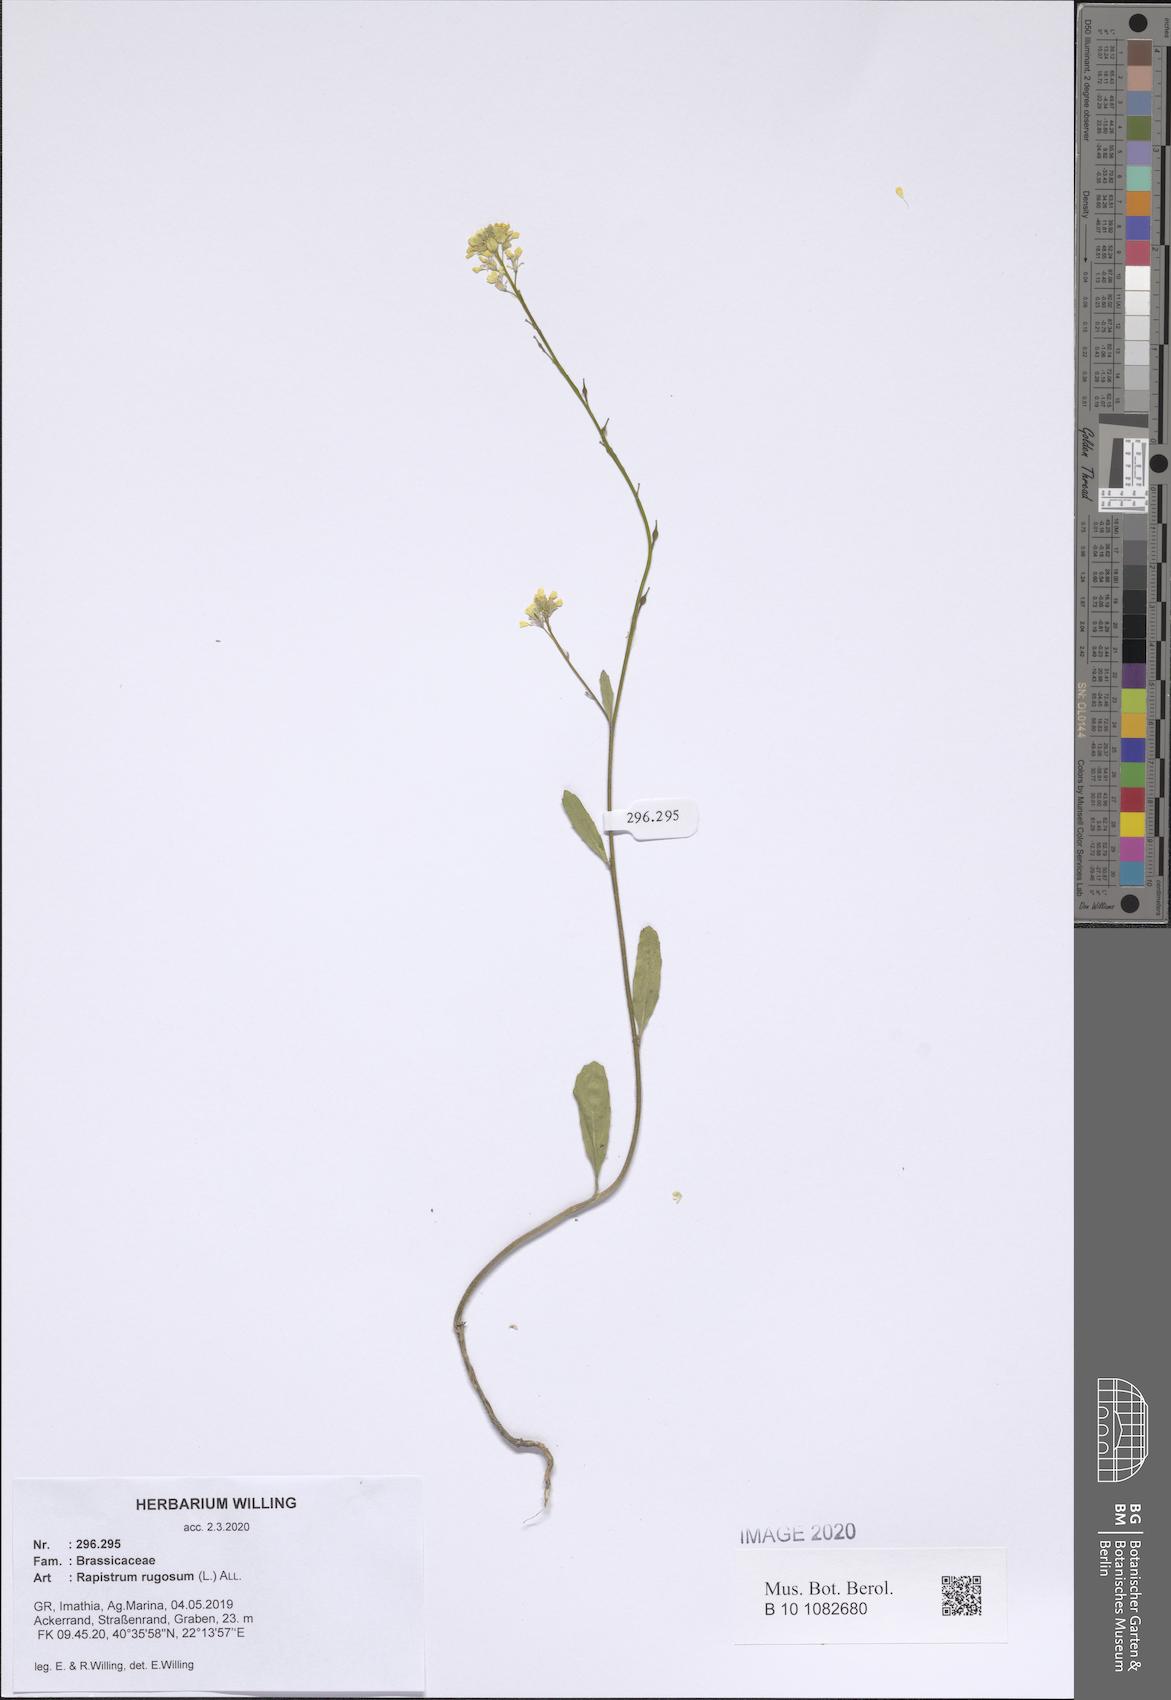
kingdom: Plantae
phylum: Tracheophyta
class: Magnoliopsida
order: Brassicales
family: Brassicaceae
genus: Rapistrum
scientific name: Rapistrum rugosum
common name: Annual bastardcabbage
